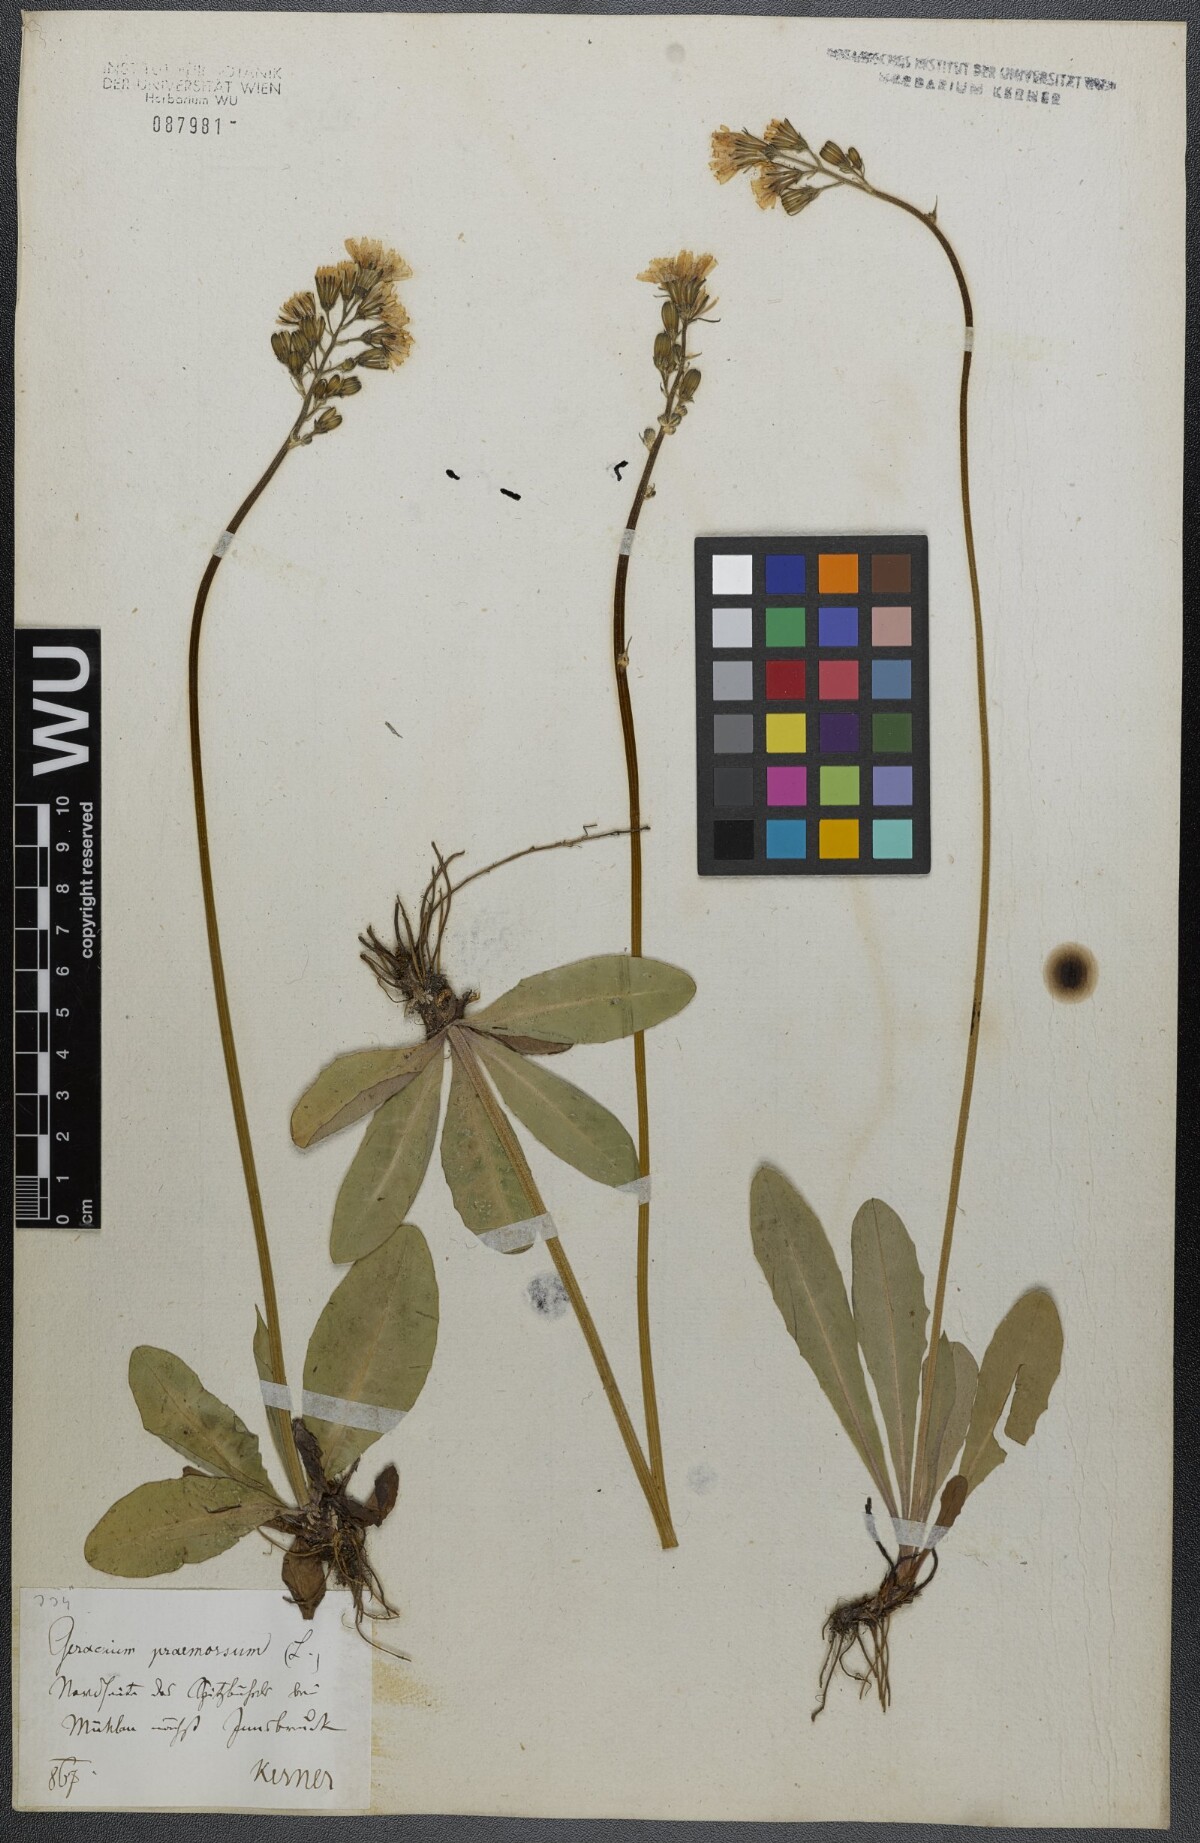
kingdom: Plantae
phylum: Tracheophyta
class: Magnoliopsida
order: Asterales
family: Asteraceae
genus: Crepis
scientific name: Crepis praemorsa
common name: Leafless hawk's-beard
